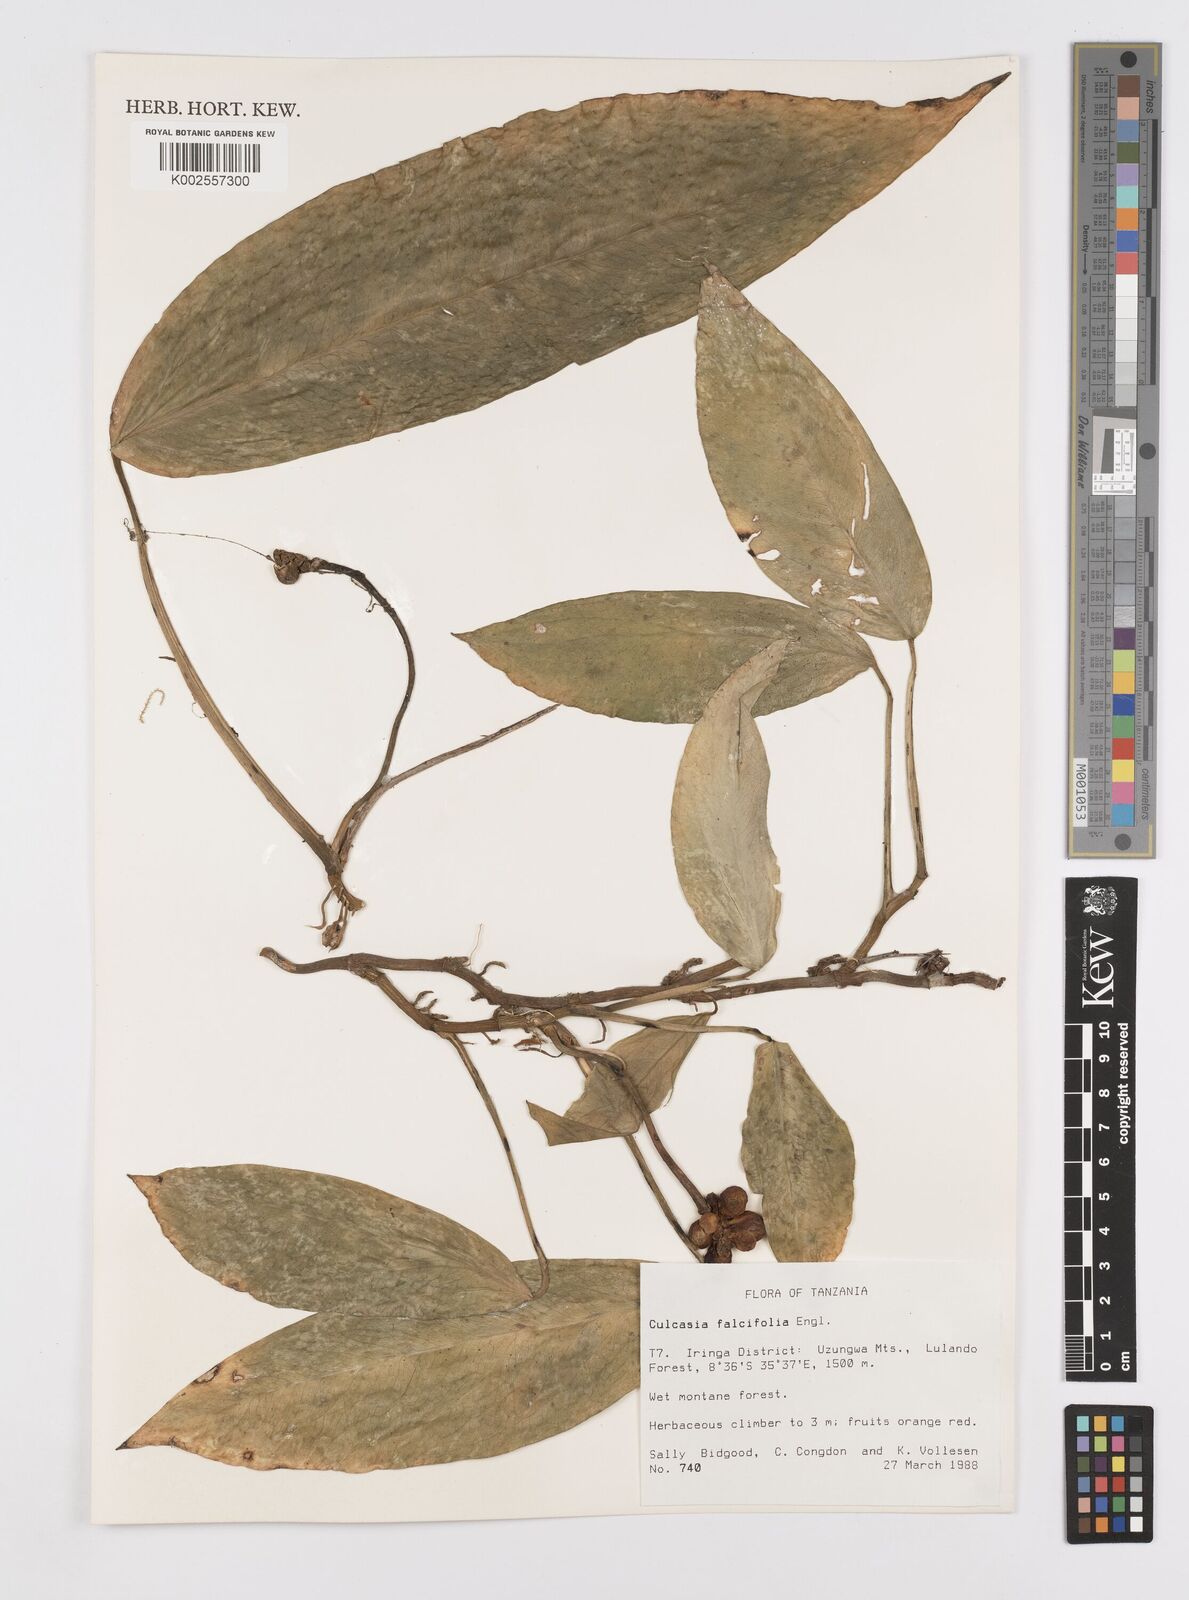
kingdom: Plantae
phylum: Tracheophyta
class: Liliopsida
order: Alismatales
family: Araceae
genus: Culcasia
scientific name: Culcasia falcifolia
